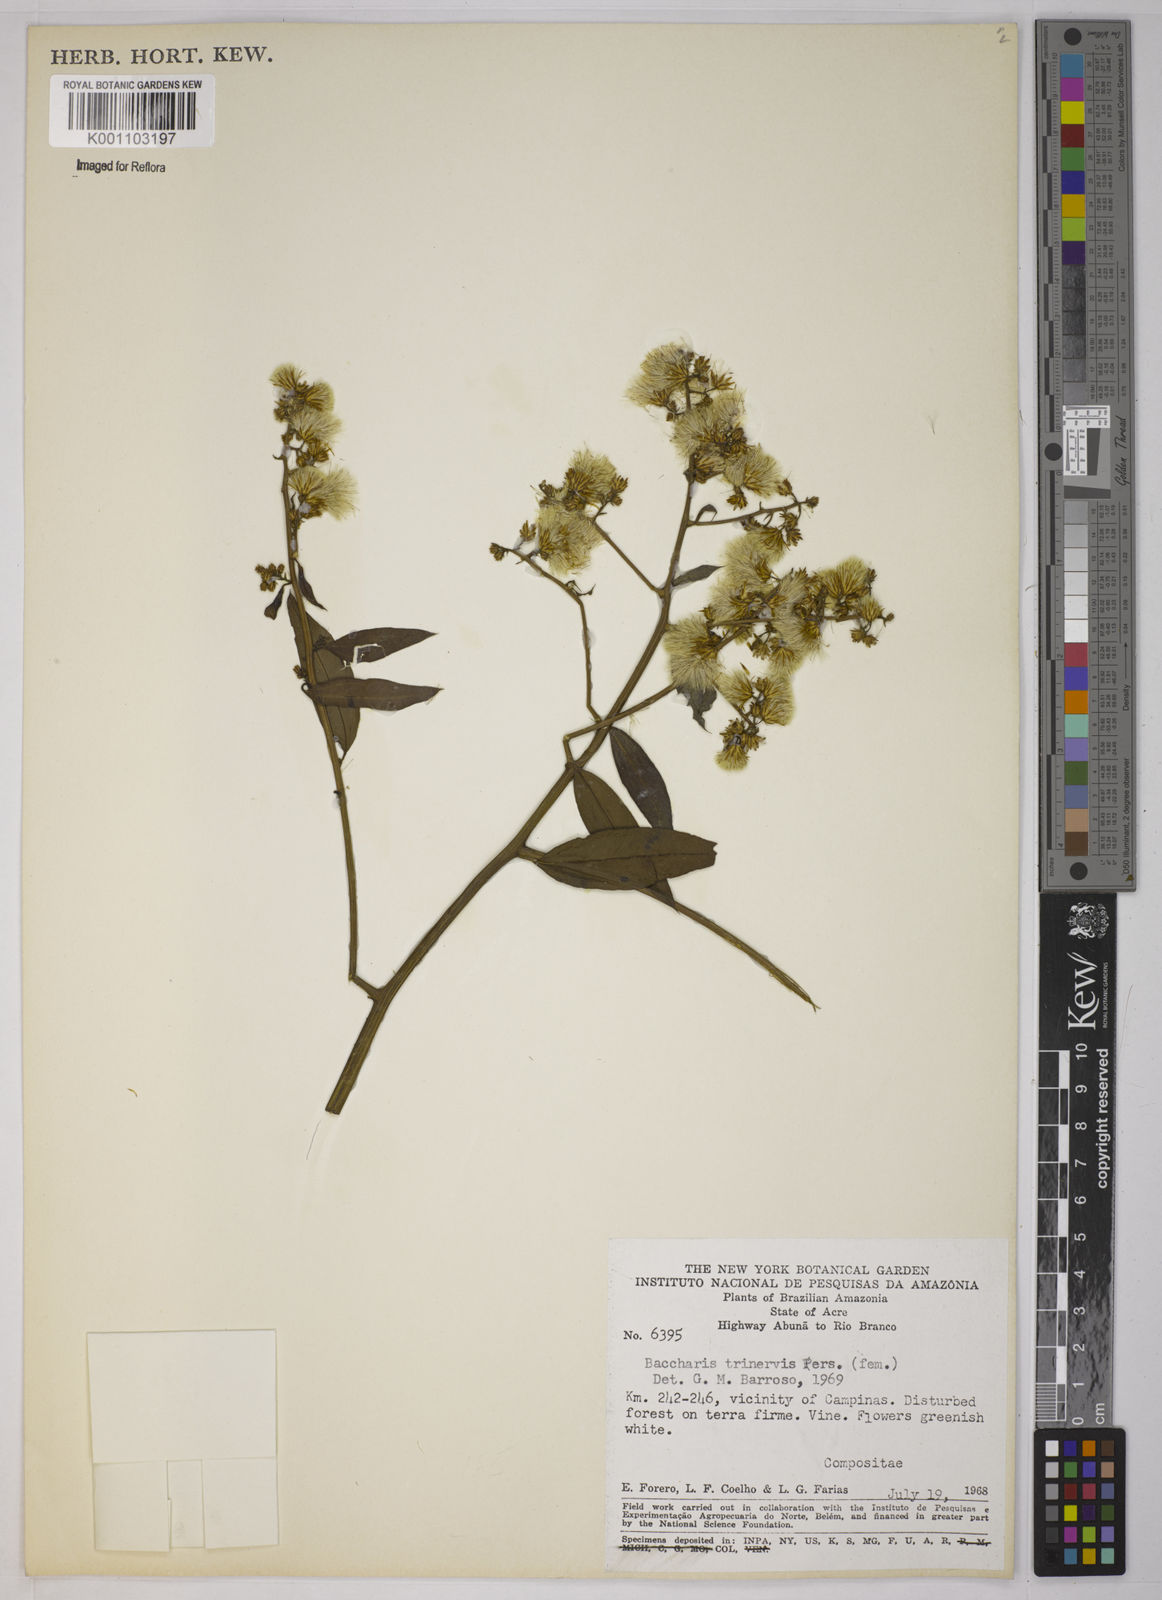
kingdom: Plantae
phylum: Tracheophyta
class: Magnoliopsida
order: Asterales
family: Asteraceae
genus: Baccharis
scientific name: Baccharis trinervis
